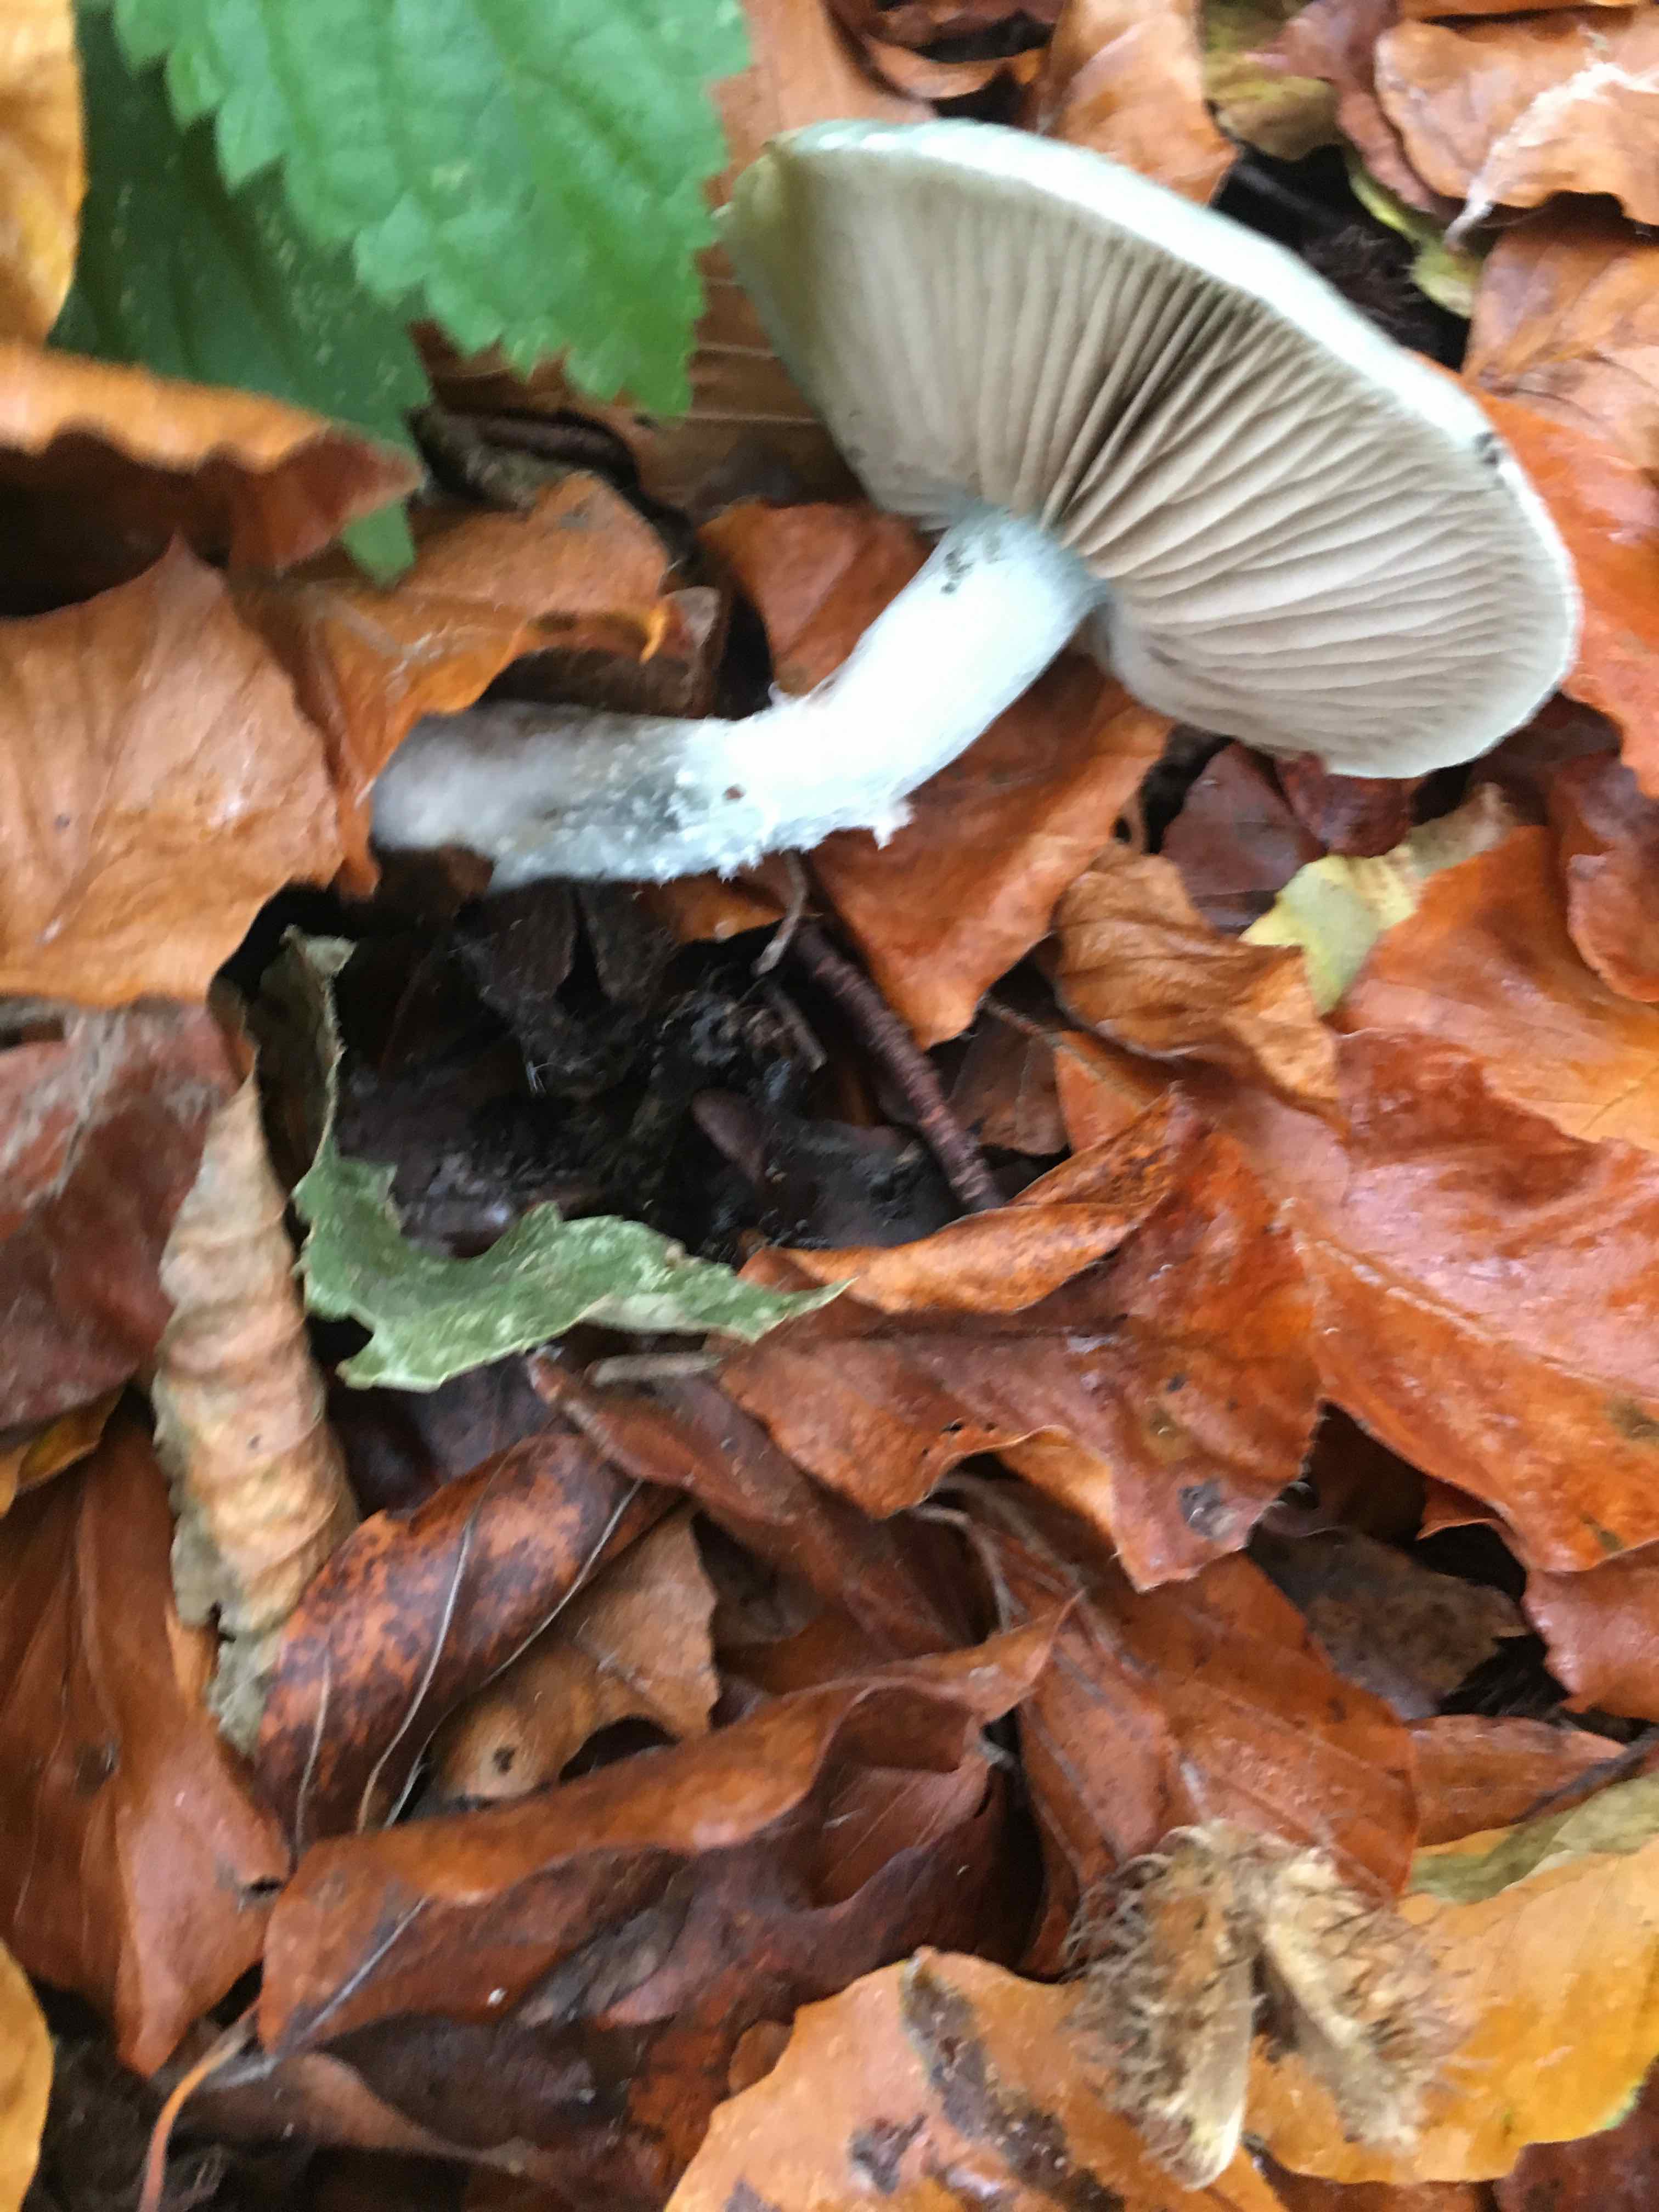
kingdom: Fungi
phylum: Basidiomycota
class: Agaricomycetes
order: Agaricales
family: Strophariaceae
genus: Stropharia
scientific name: Stropharia cyanea
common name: blågrøn bredblad
